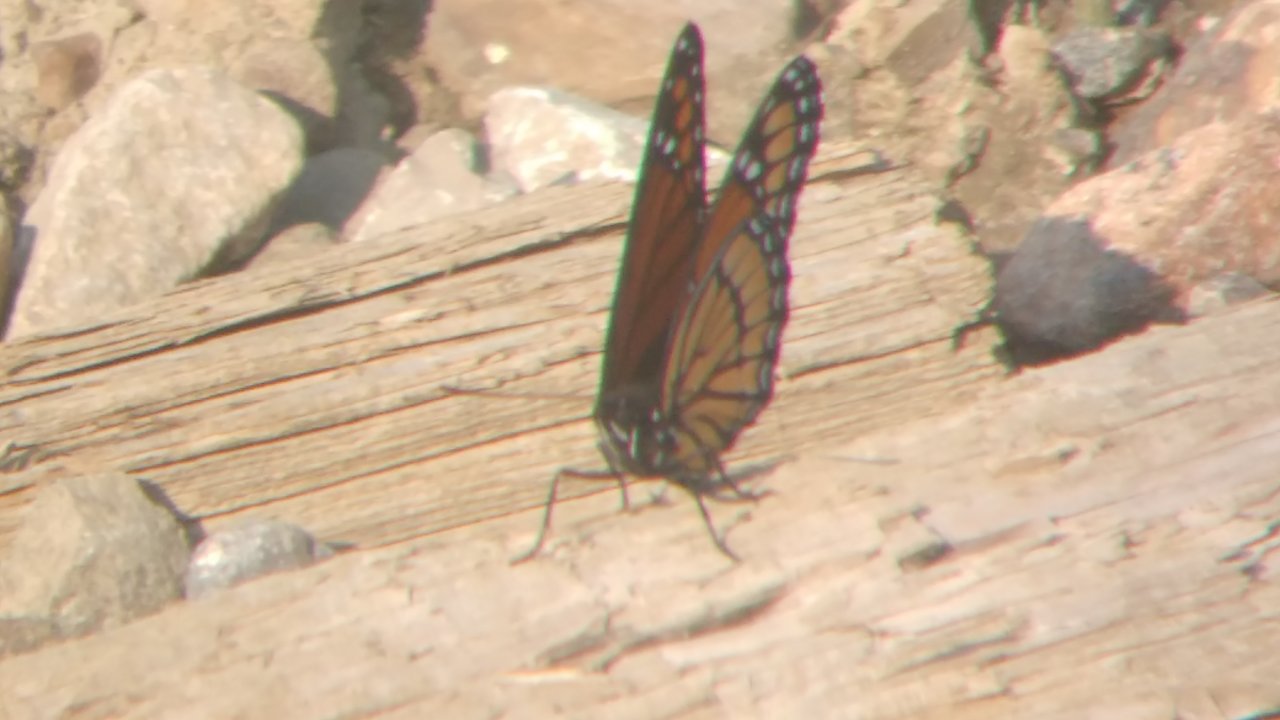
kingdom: Animalia
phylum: Arthropoda
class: Insecta
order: Lepidoptera
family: Nymphalidae
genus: Limenitis
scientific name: Limenitis archippus
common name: Viceroy
